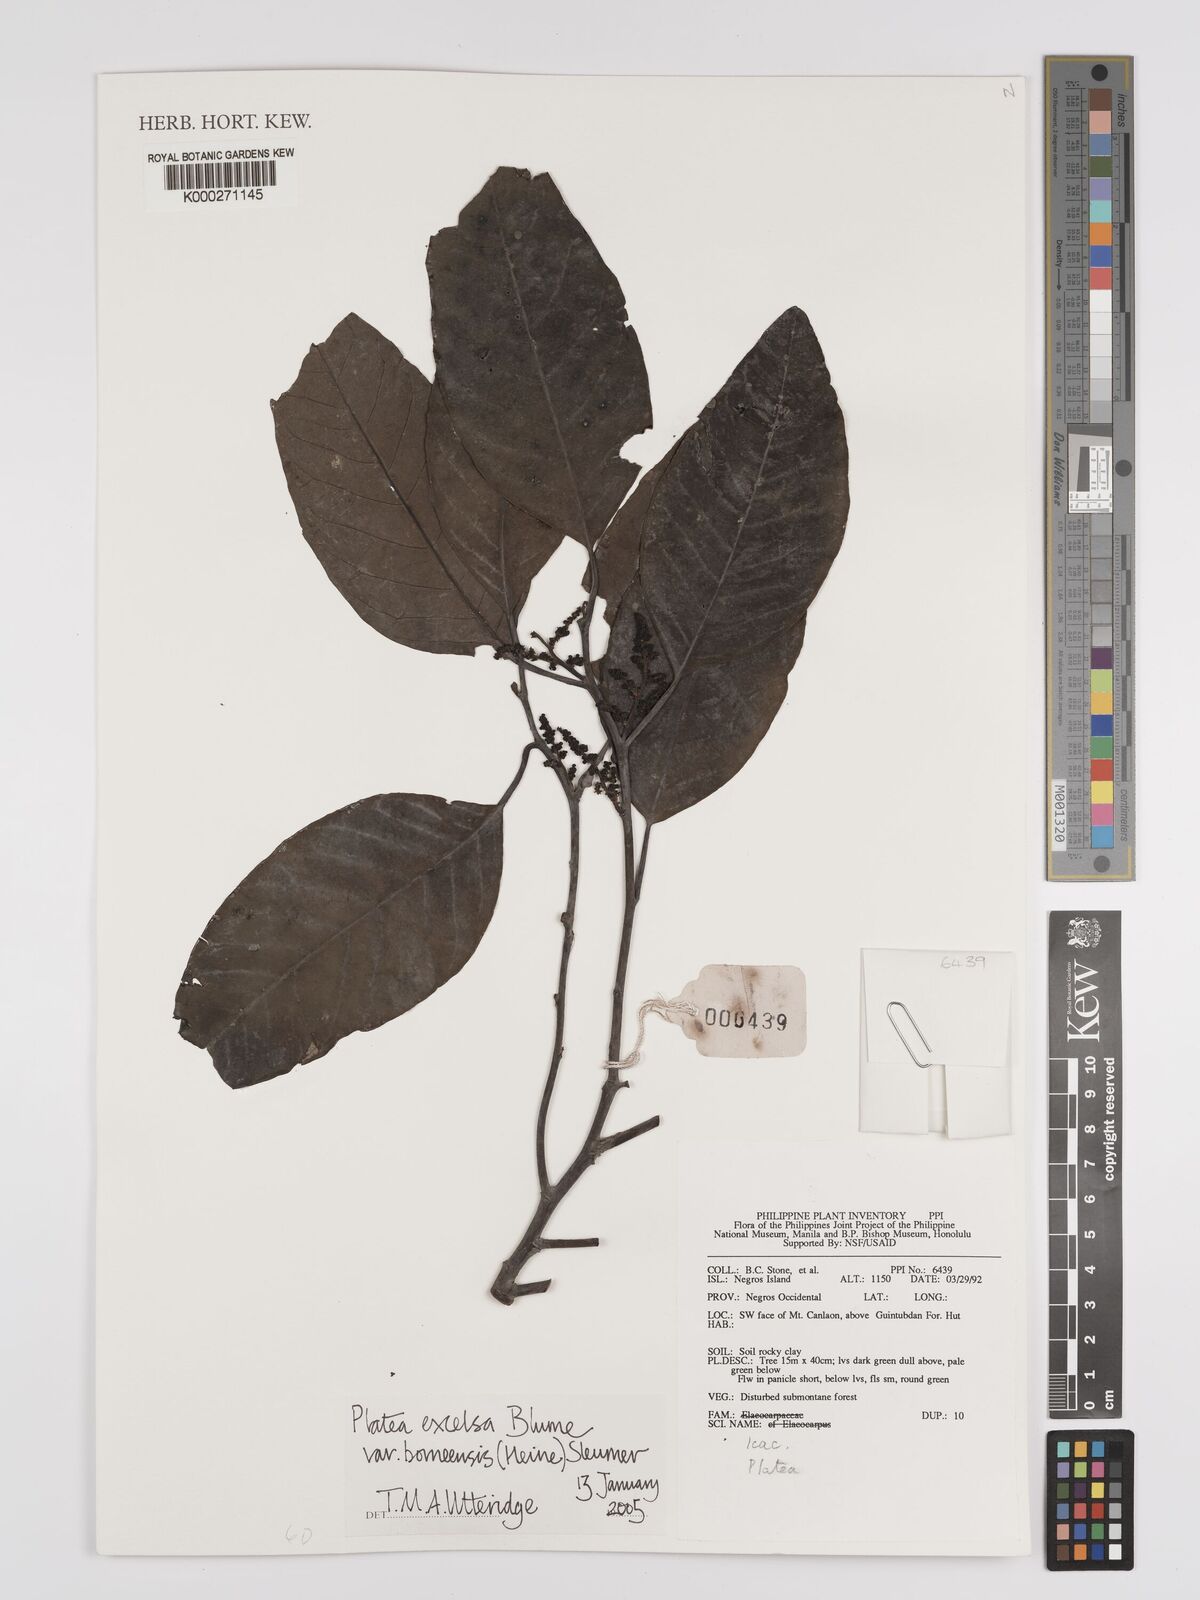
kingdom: Plantae
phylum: Tracheophyta
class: Magnoliopsida
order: Metteniusales
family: Metteniusaceae
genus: Platea
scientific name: Platea excelsa
